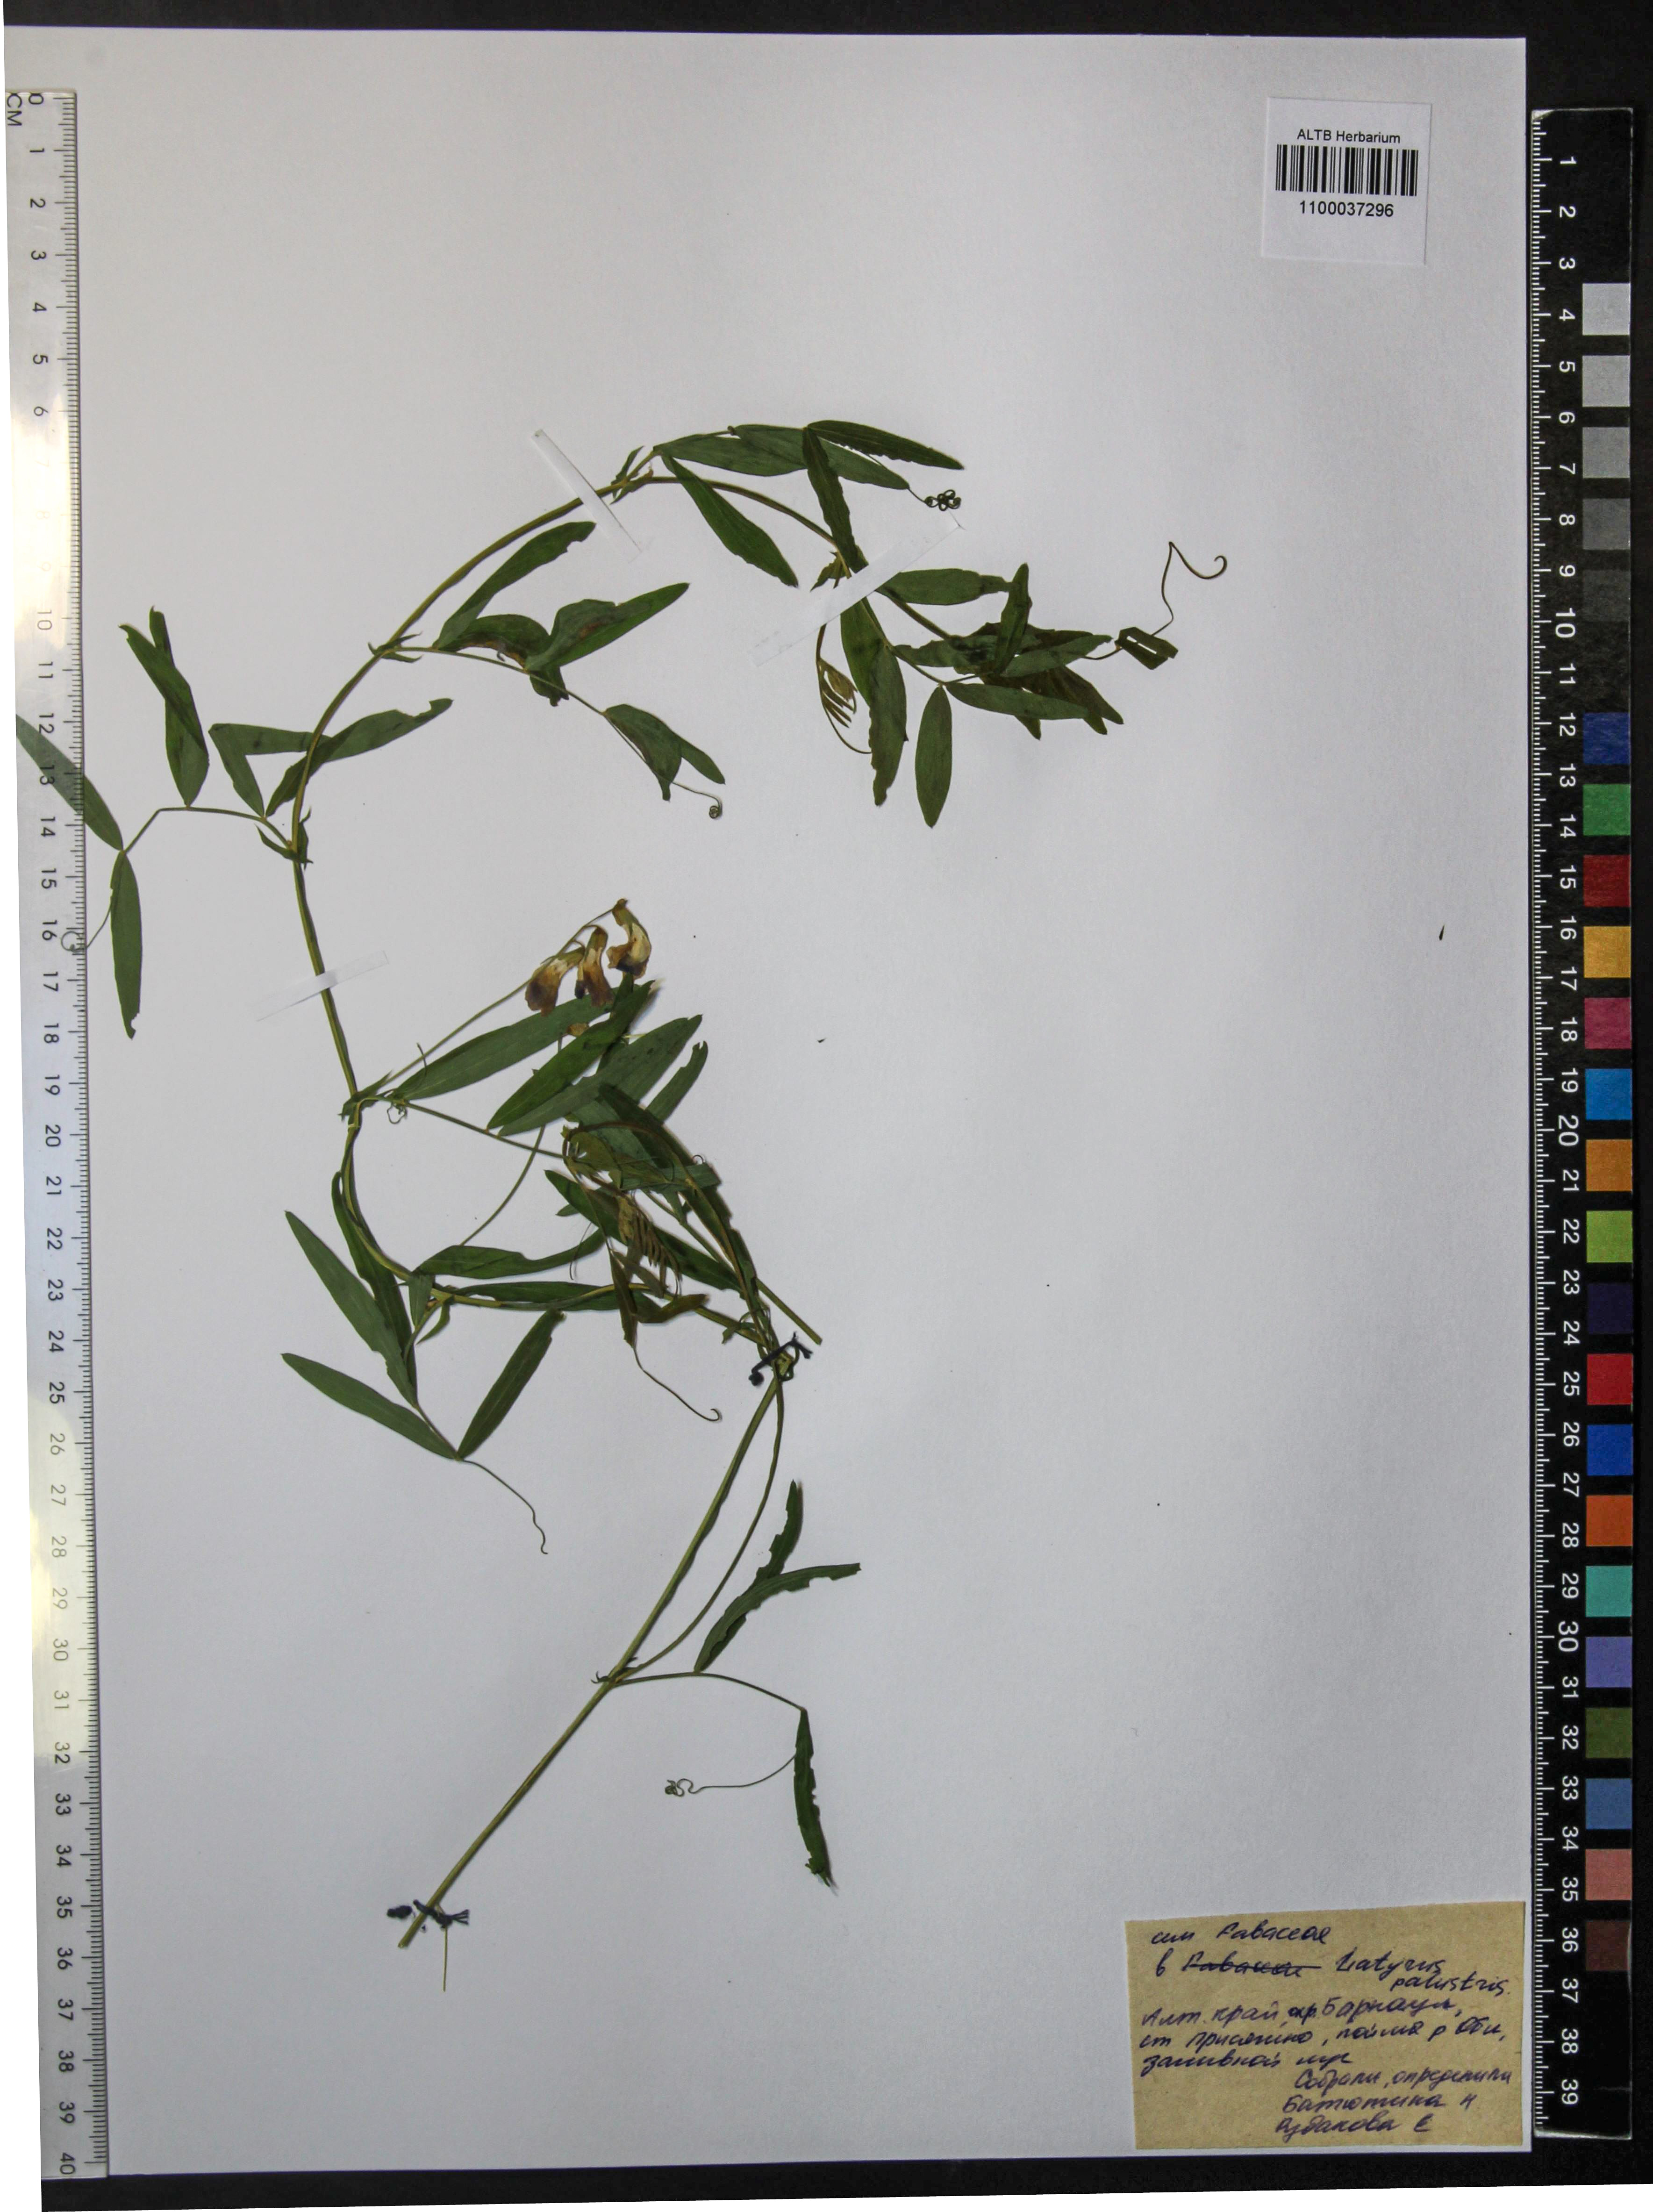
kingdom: Plantae
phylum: Tracheophyta
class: Magnoliopsida
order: Fabales
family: Fabaceae
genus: Lathyrus
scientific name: Lathyrus palustris
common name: Marsh pea
